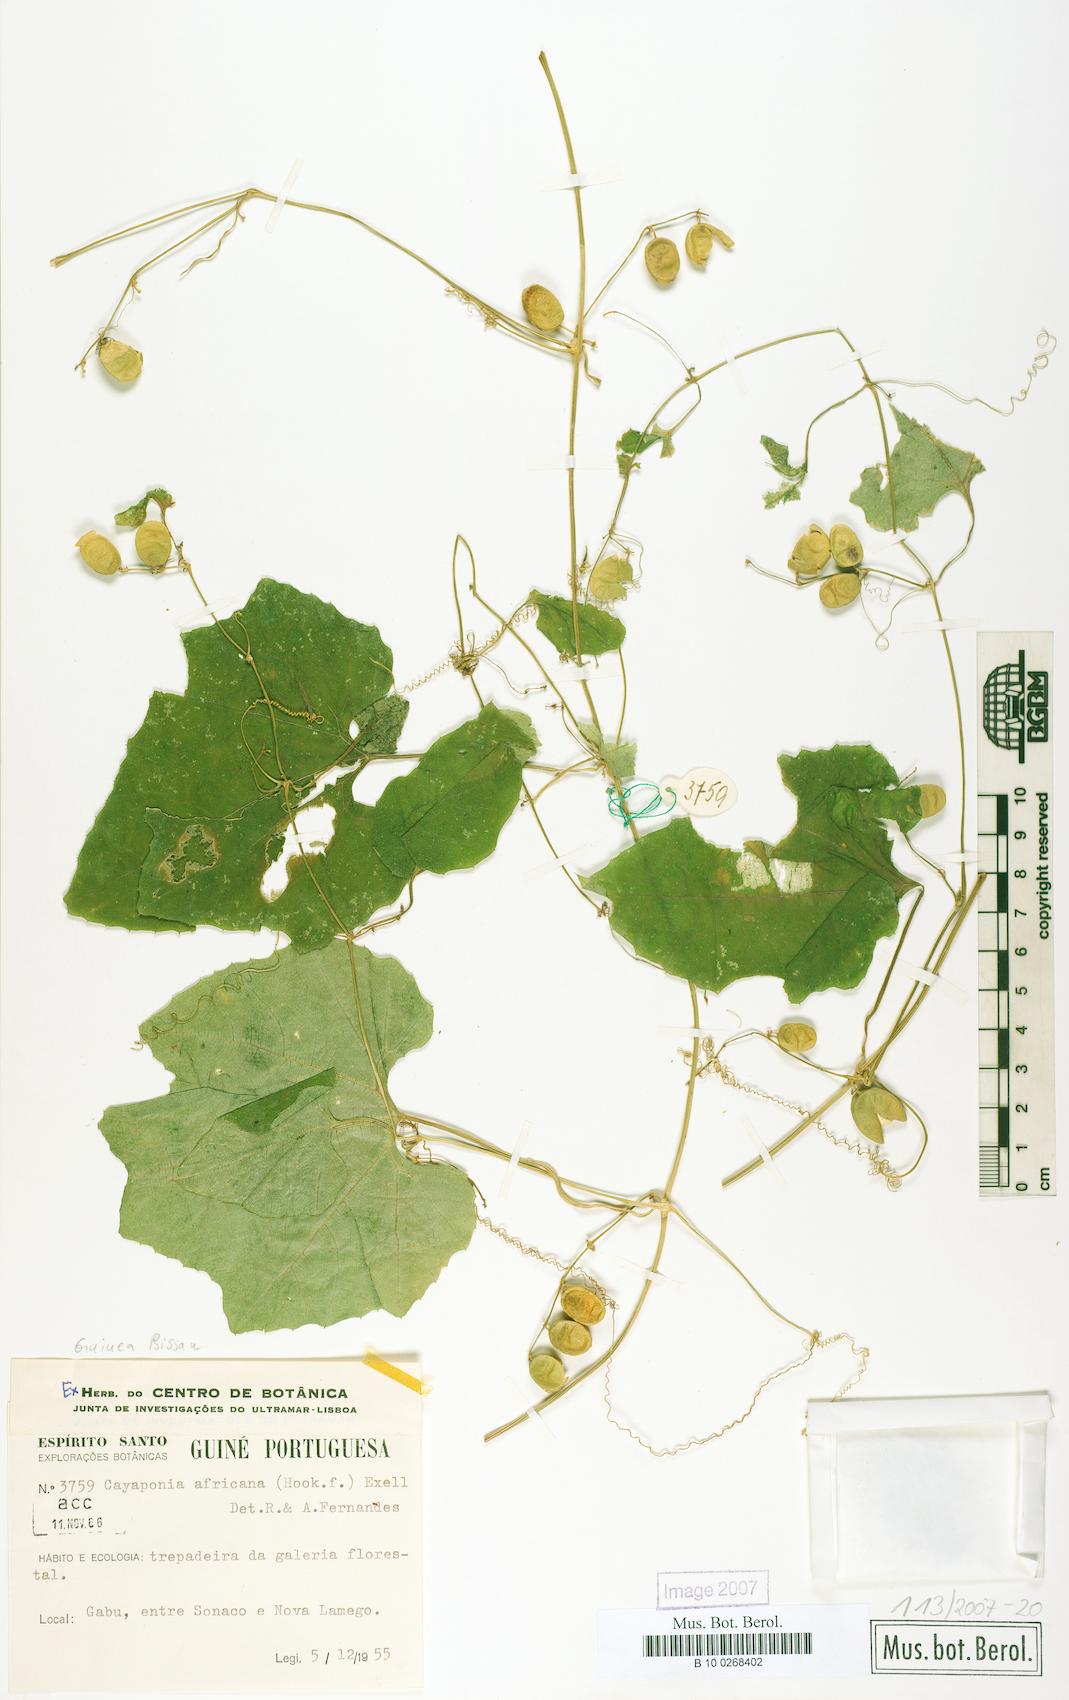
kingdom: Plantae
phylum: Tracheophyta
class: Magnoliopsida
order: Cucurbitales
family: Cucurbitaceae
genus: Cayaponia
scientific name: Cayaponia africana
